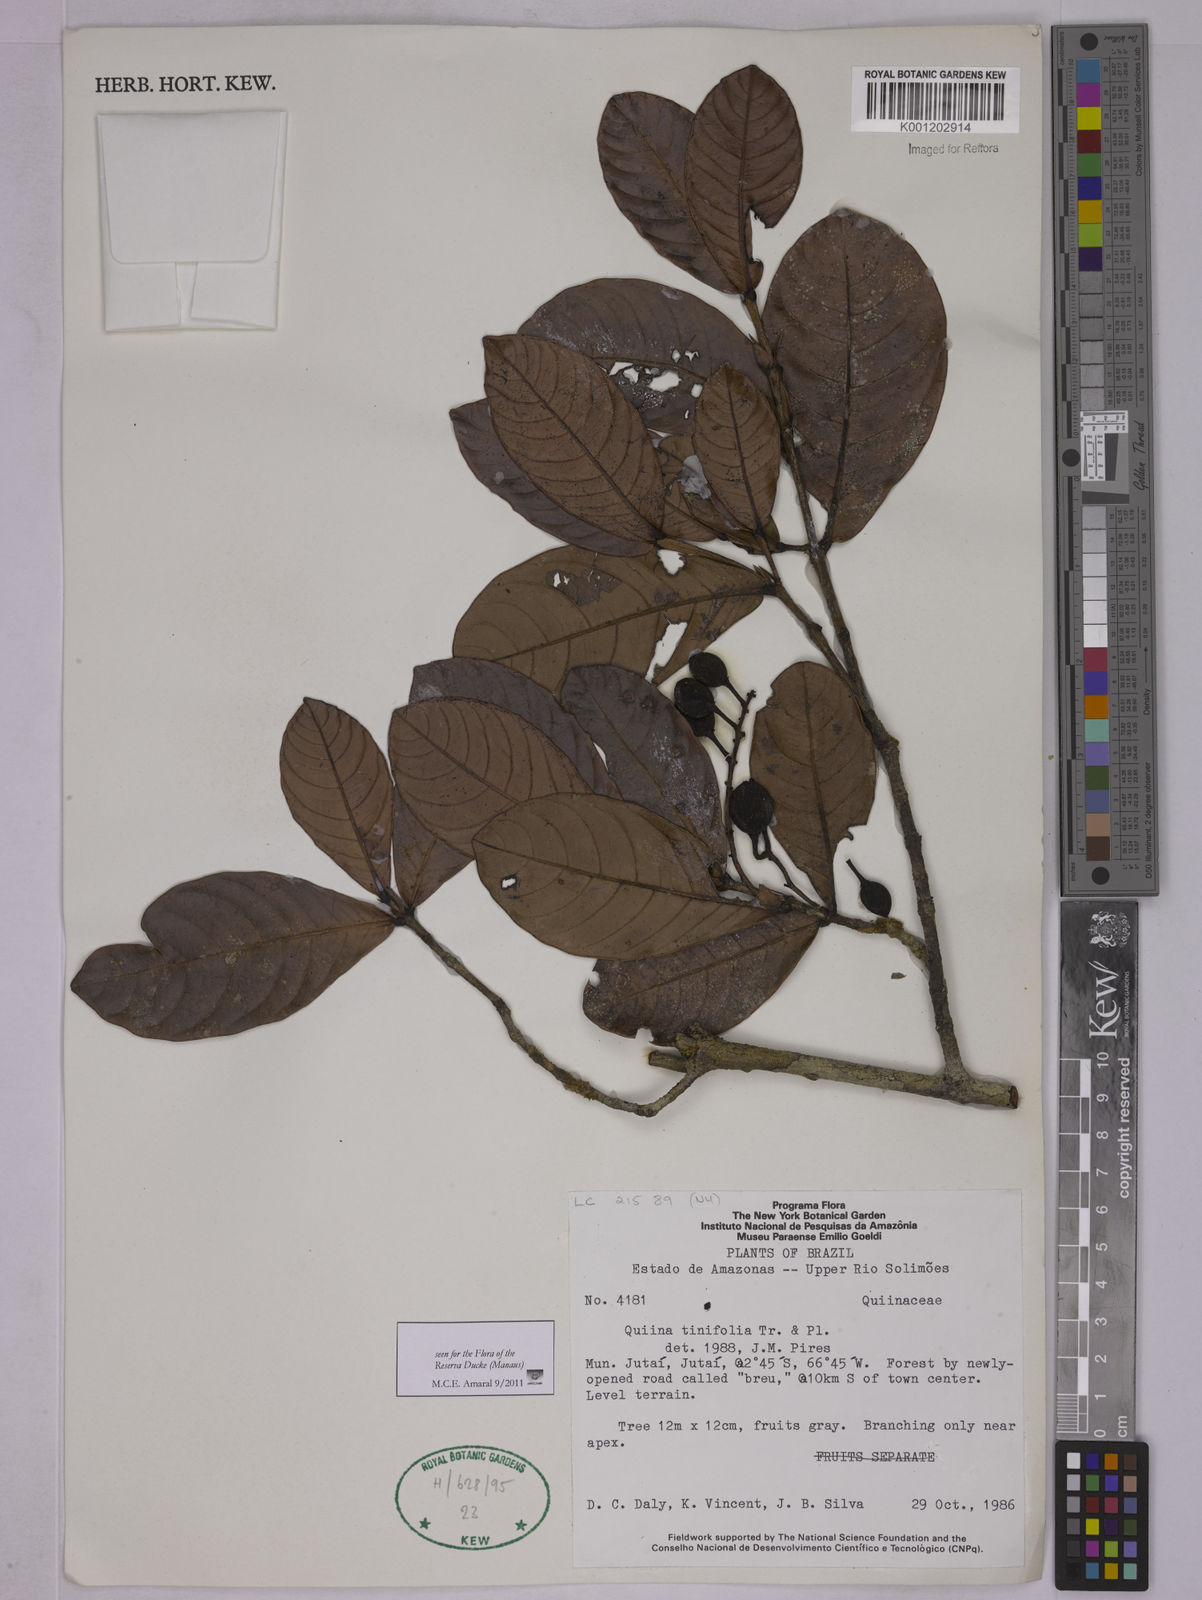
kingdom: Plantae
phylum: Tracheophyta
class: Magnoliopsida
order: Malpighiales
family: Quiinaceae
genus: Quiina
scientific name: Quiina tinifolia
